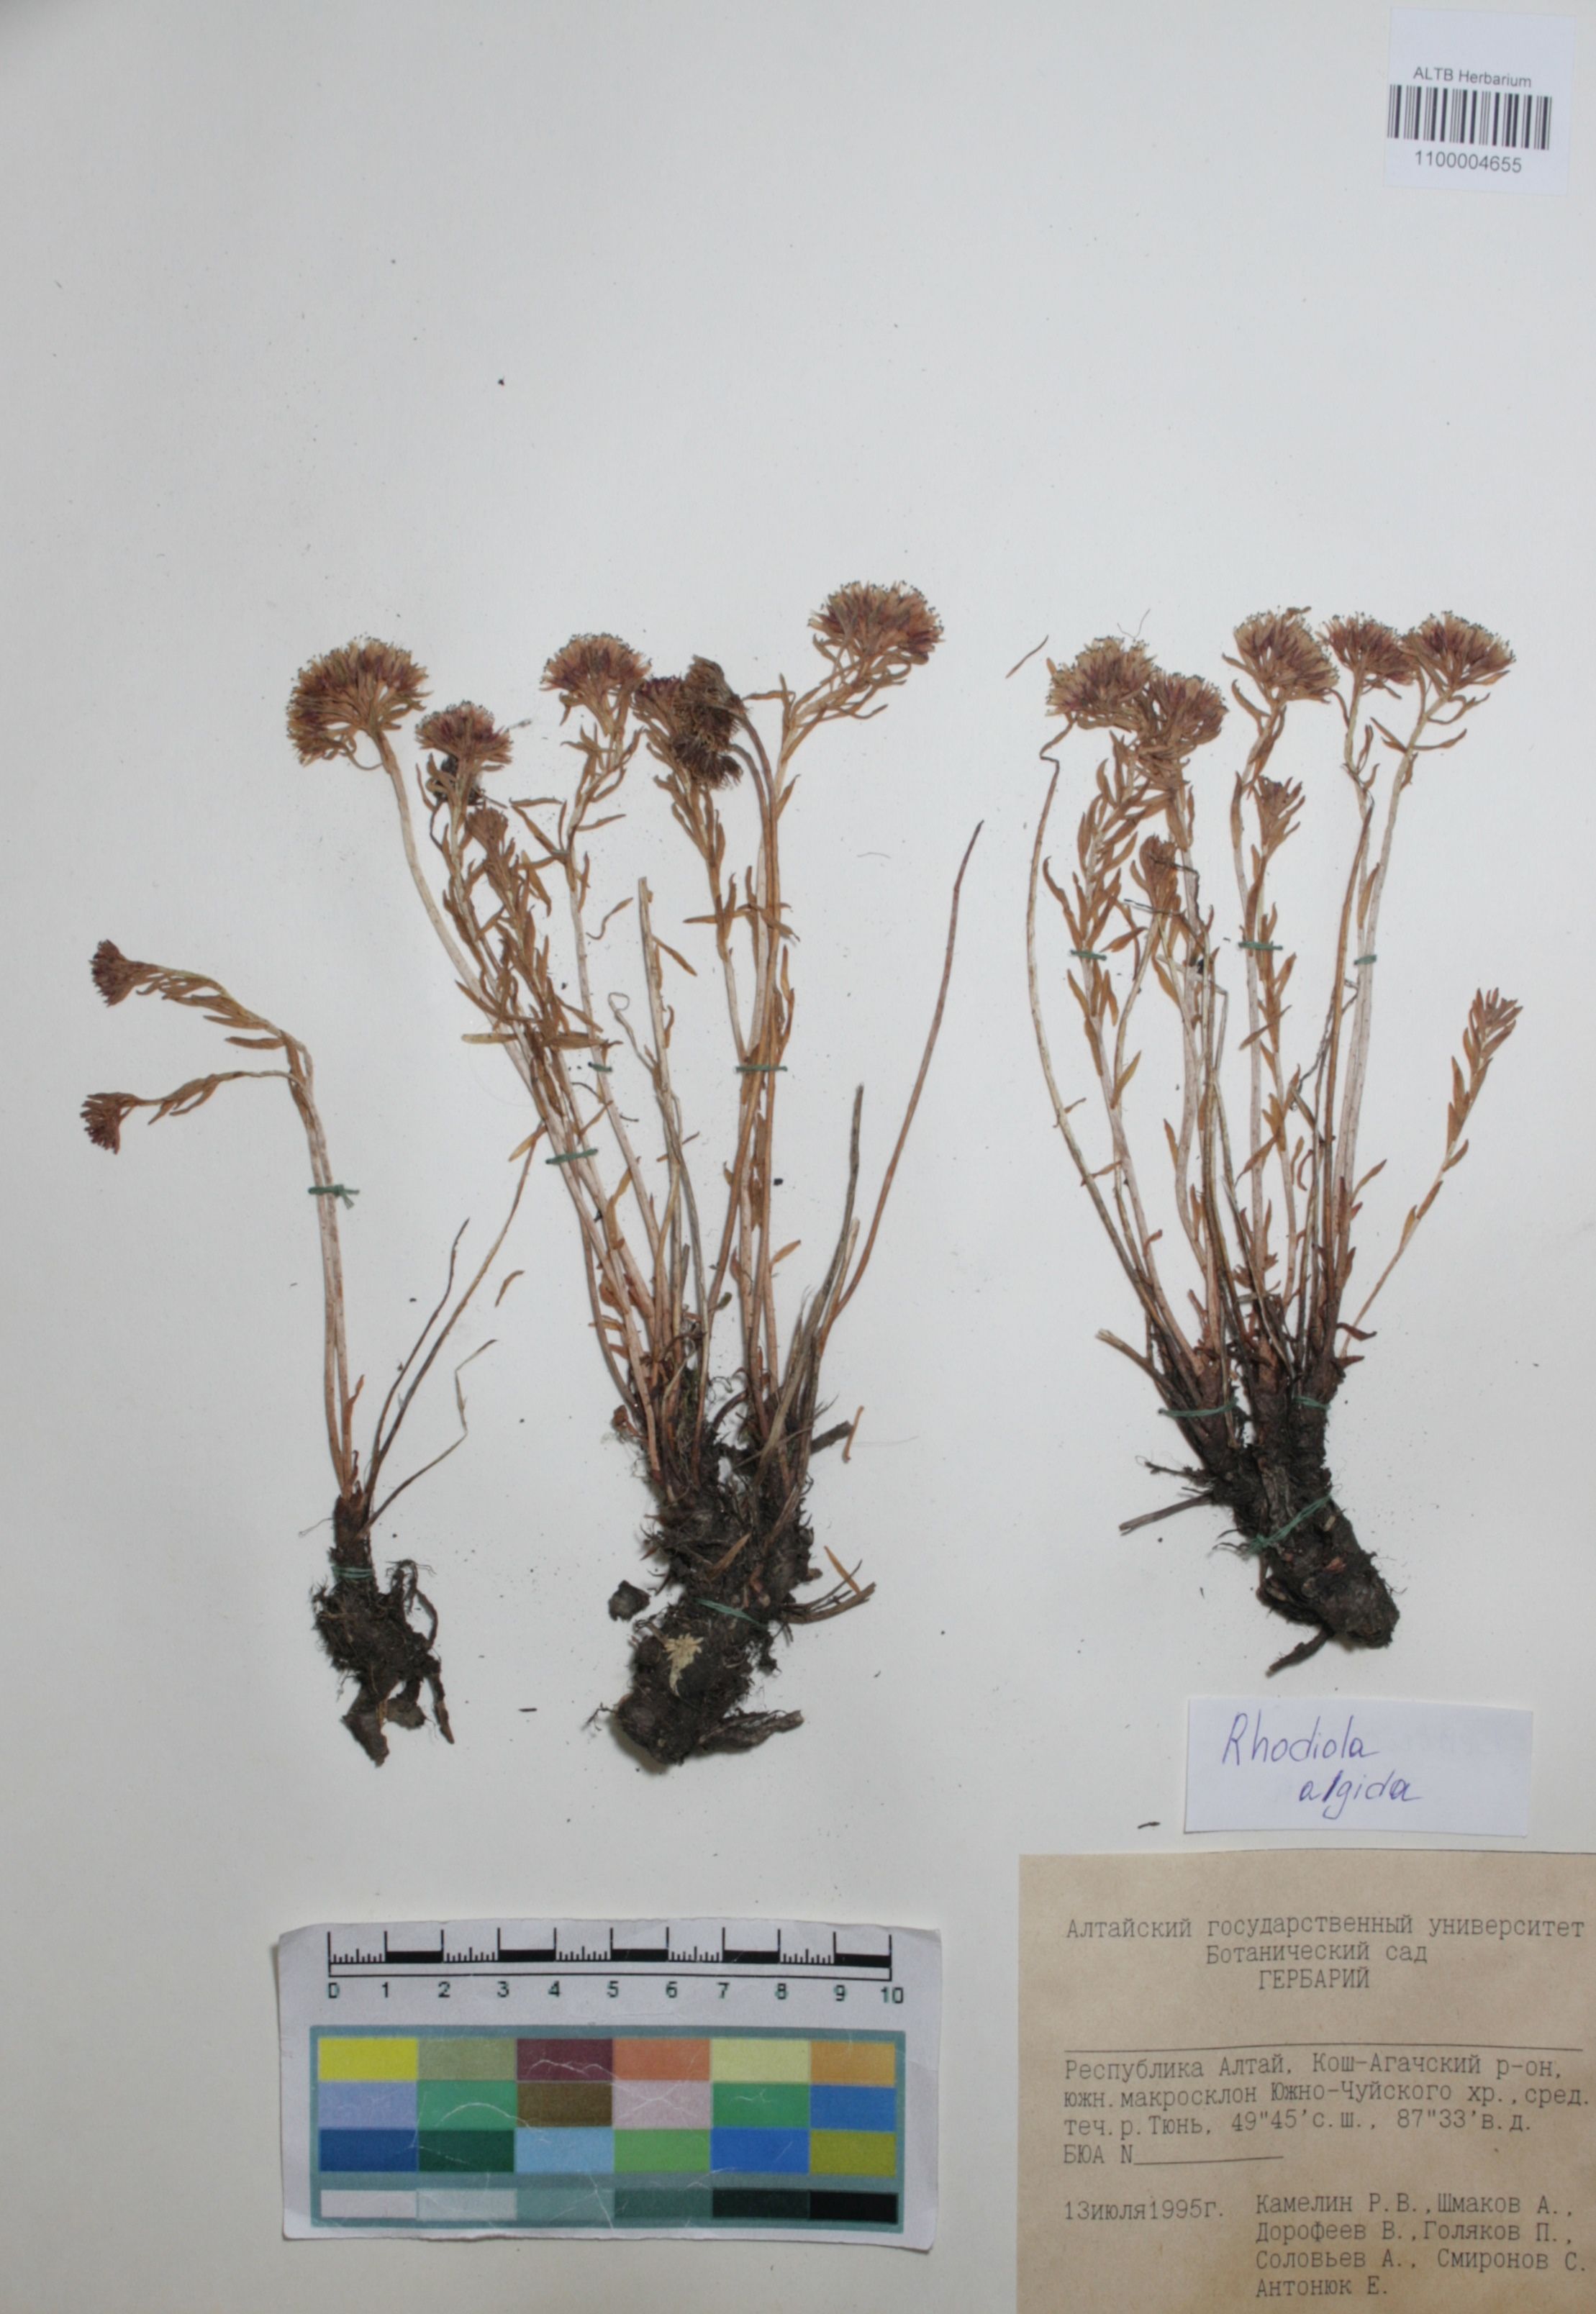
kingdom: Plantae
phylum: Tracheophyta
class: Magnoliopsida
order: Saxifragales
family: Crassulaceae
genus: Rhodiola
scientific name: Rhodiola algida
